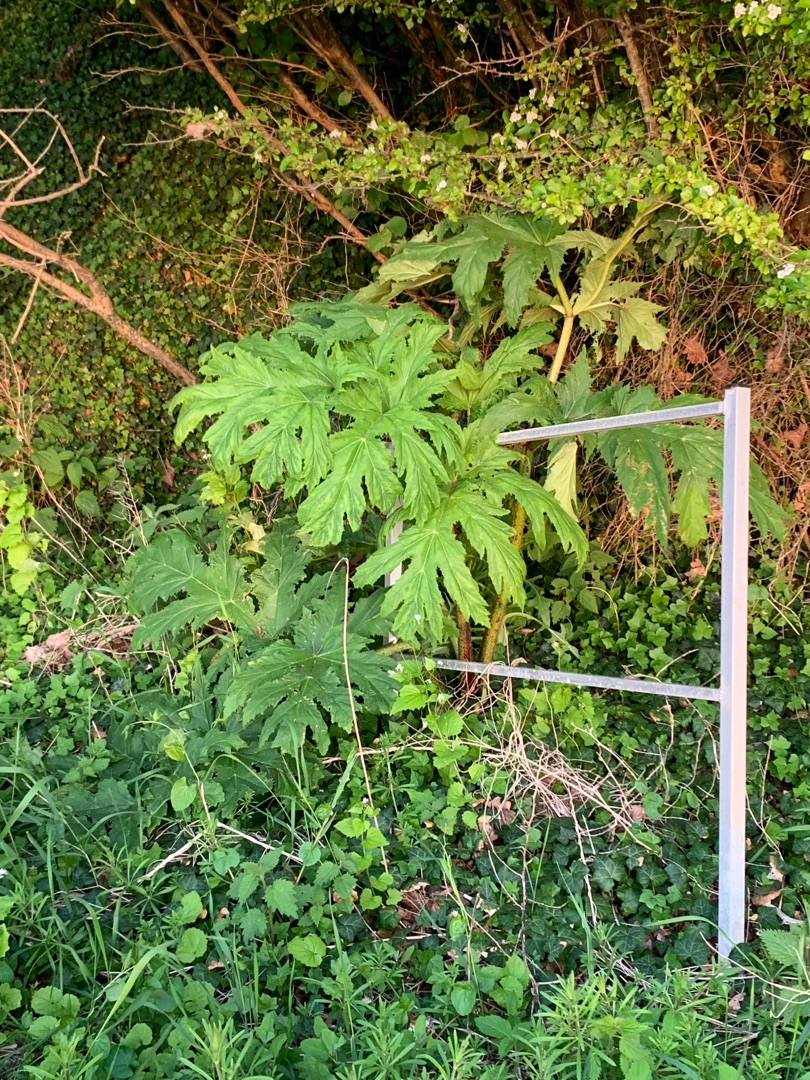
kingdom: Plantae
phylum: Tracheophyta
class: Magnoliopsida
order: Apiales
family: Apiaceae
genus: Heracleum
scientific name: Heracleum mantegazzianum
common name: Kæmpe-bjørneklo
